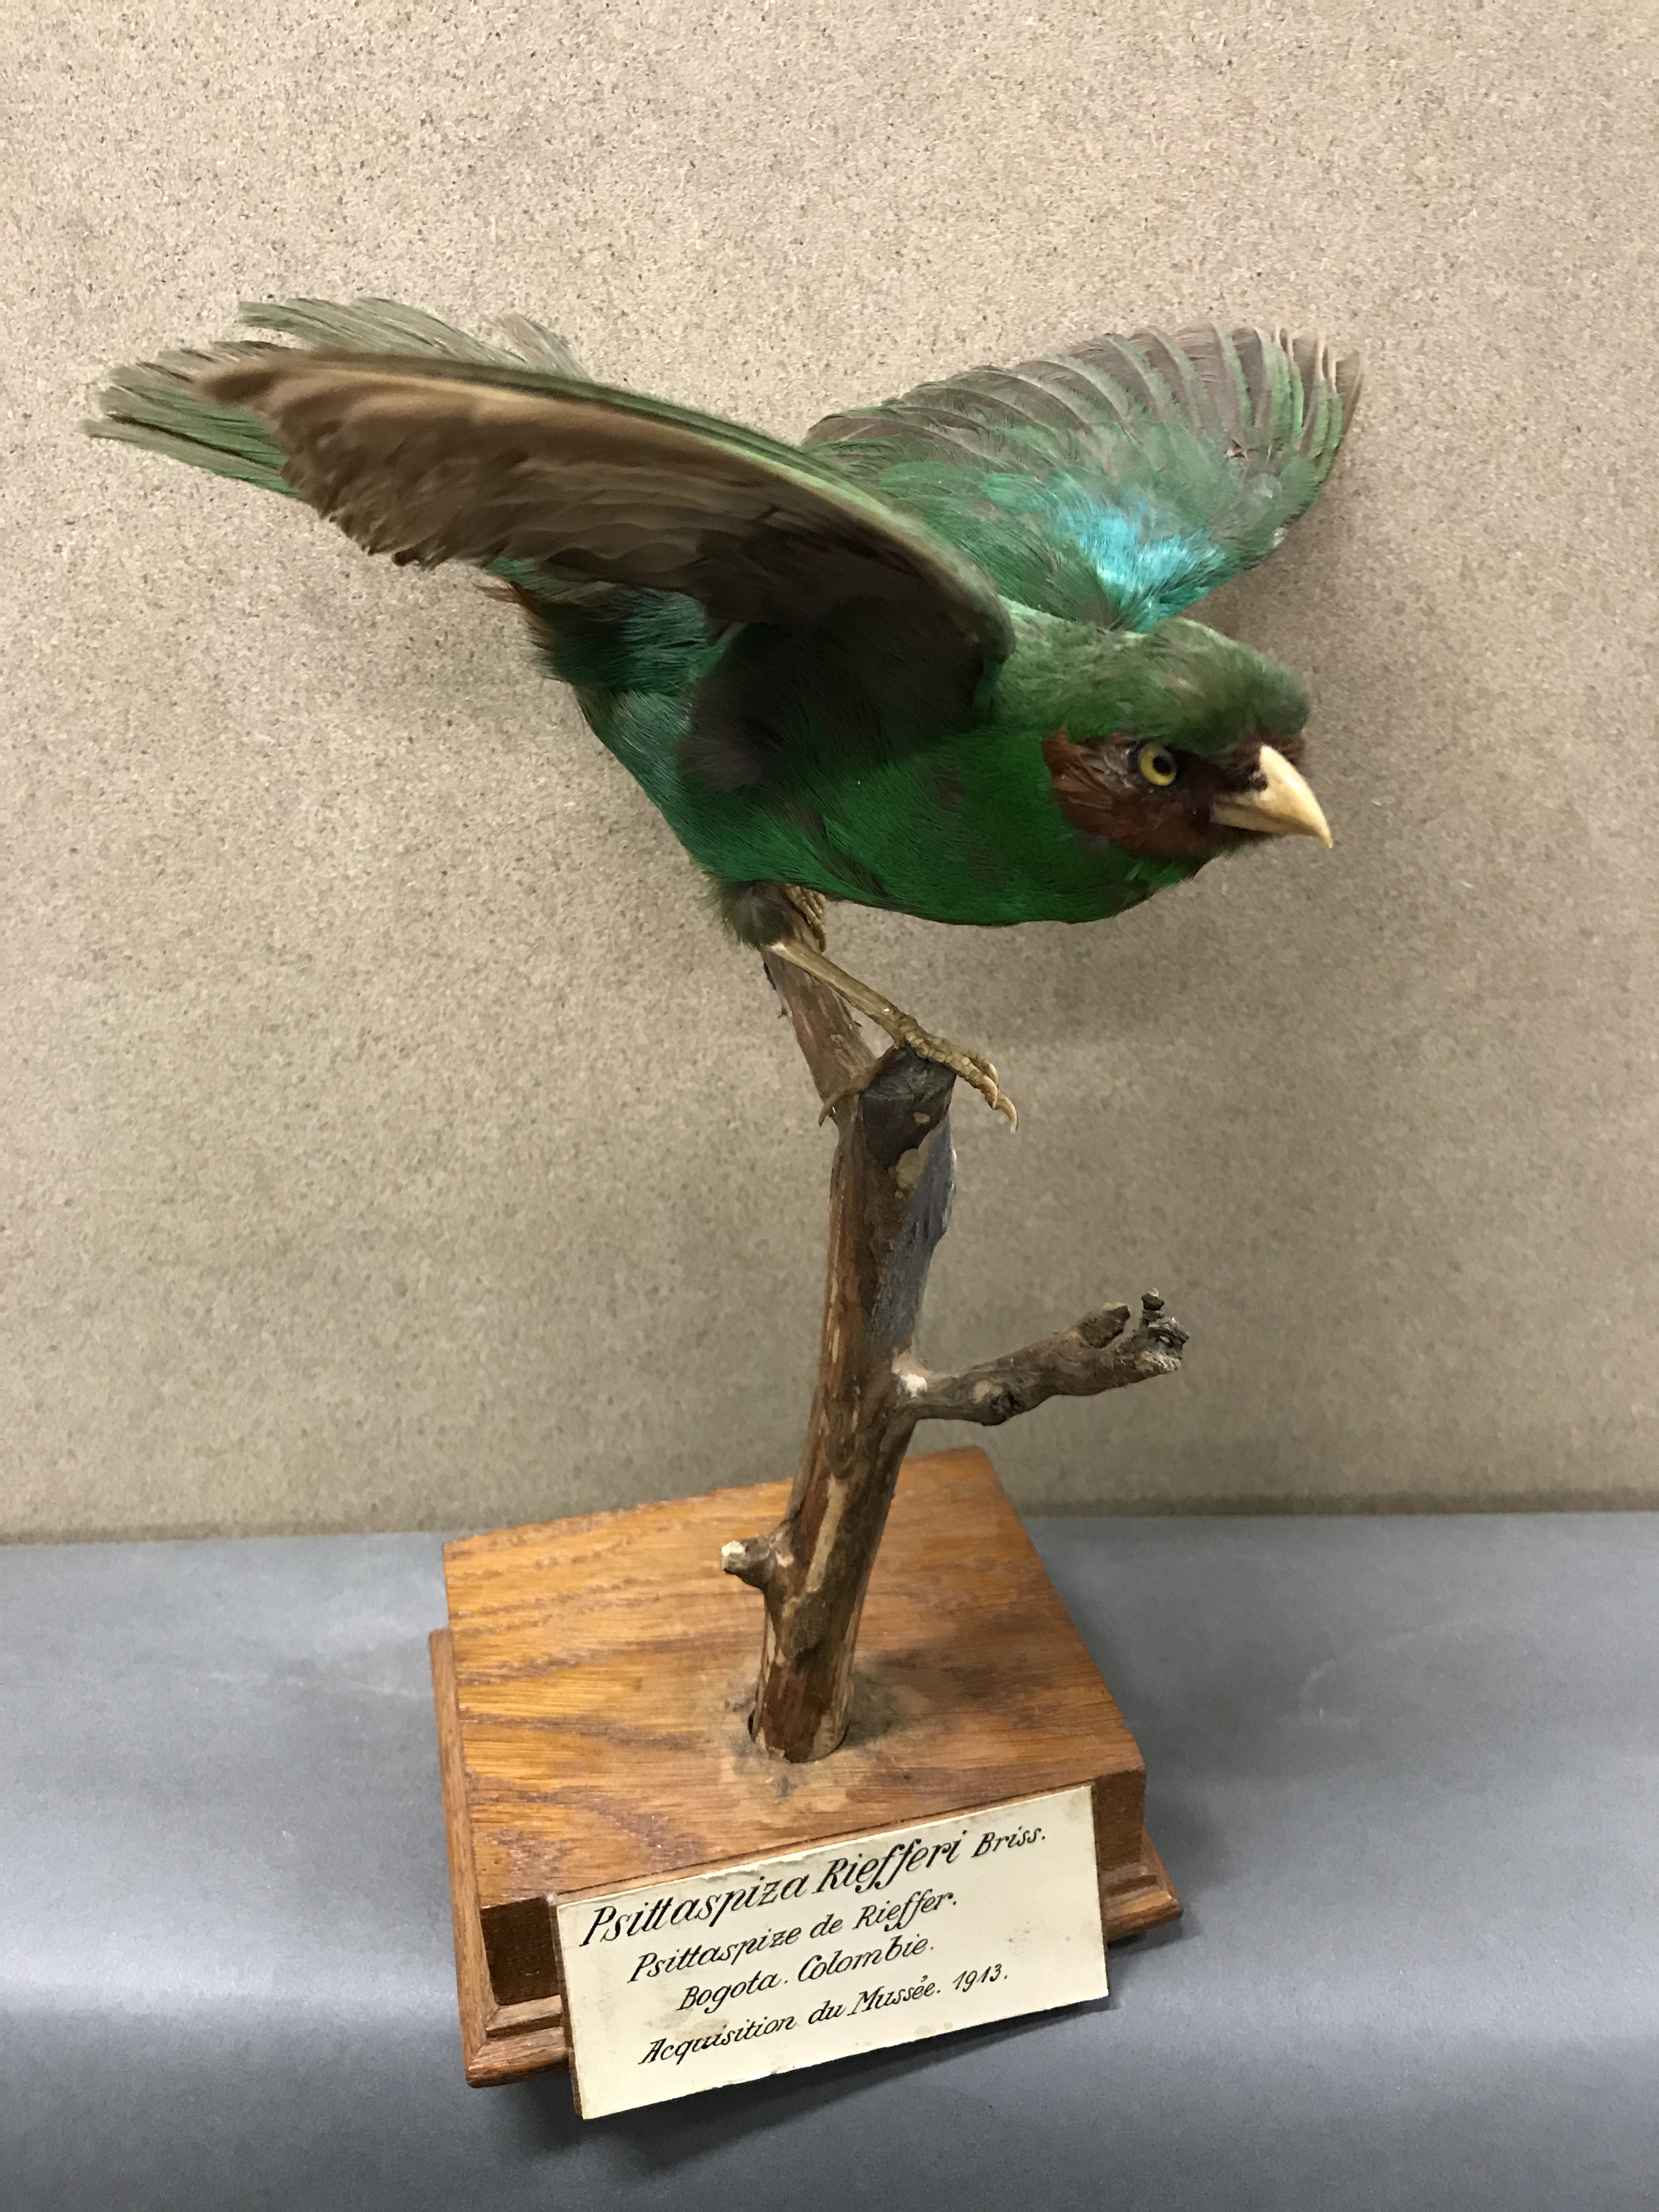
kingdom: Animalia
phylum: Chordata
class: Aves
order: Passeriformes
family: Thraupidae
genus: Chlorornis
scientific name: Chlorornis riefferii
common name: Grass-green tanager
